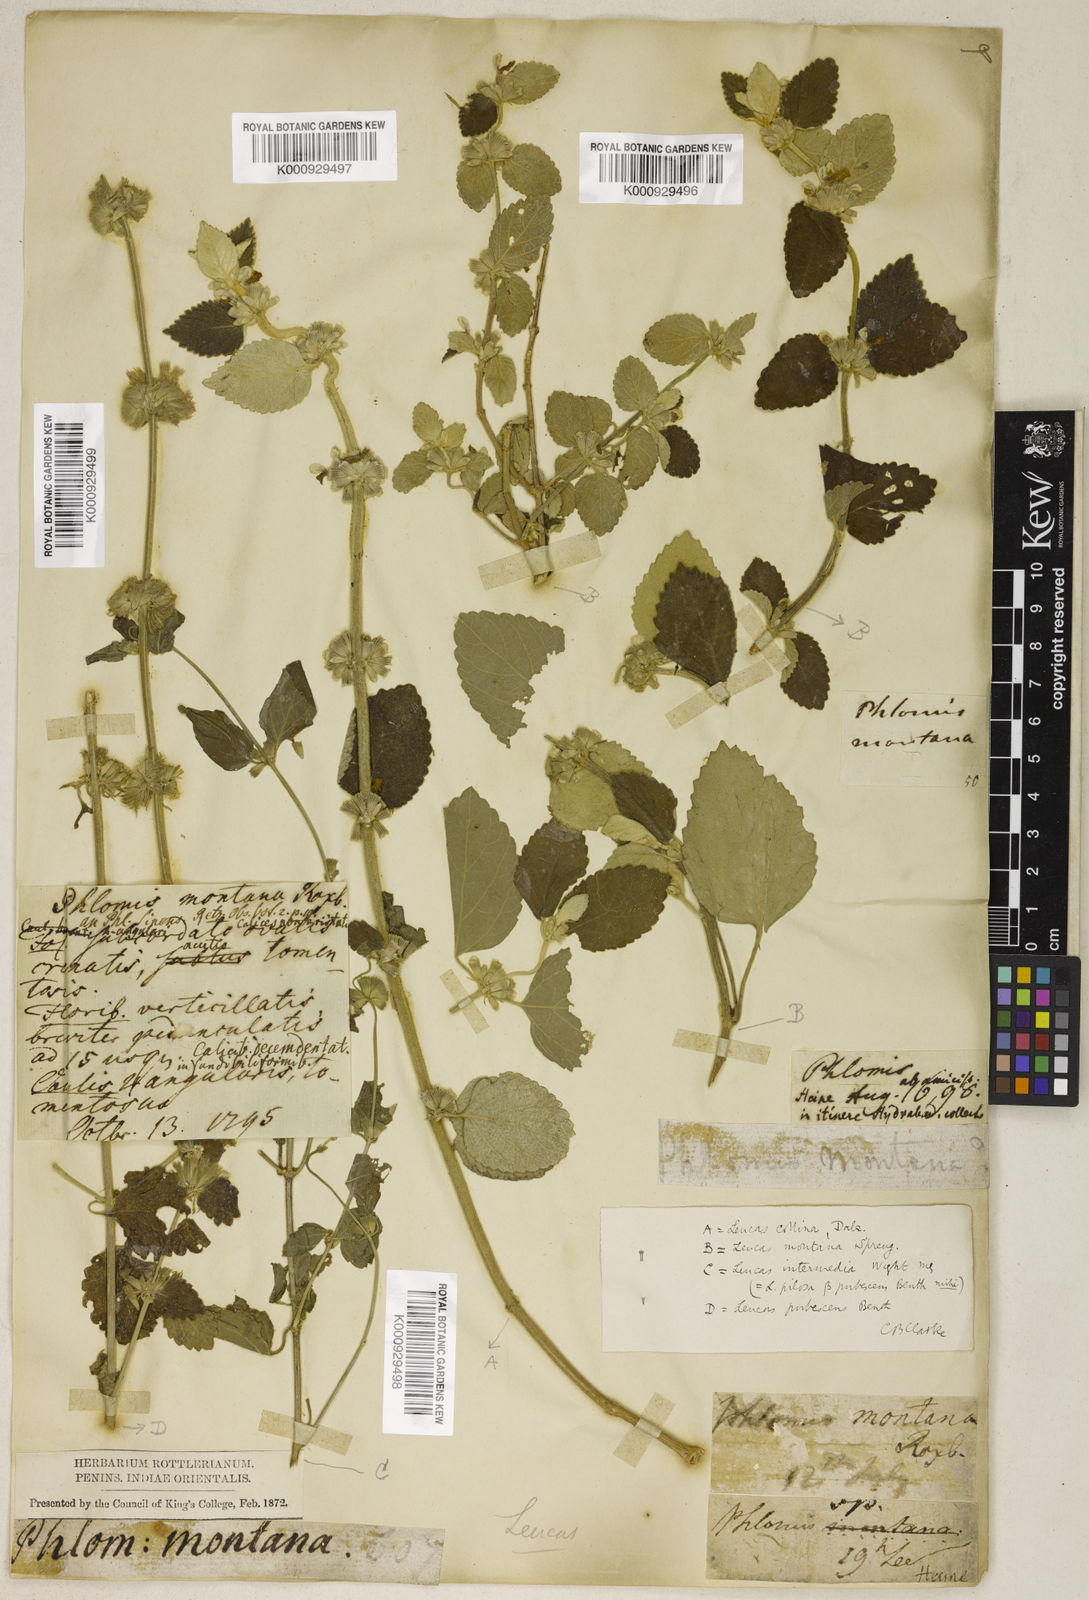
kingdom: Plantae
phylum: Tracheophyta
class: Magnoliopsida
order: Lamiales
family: Lamiaceae
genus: Leucas
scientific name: Leucas montana
